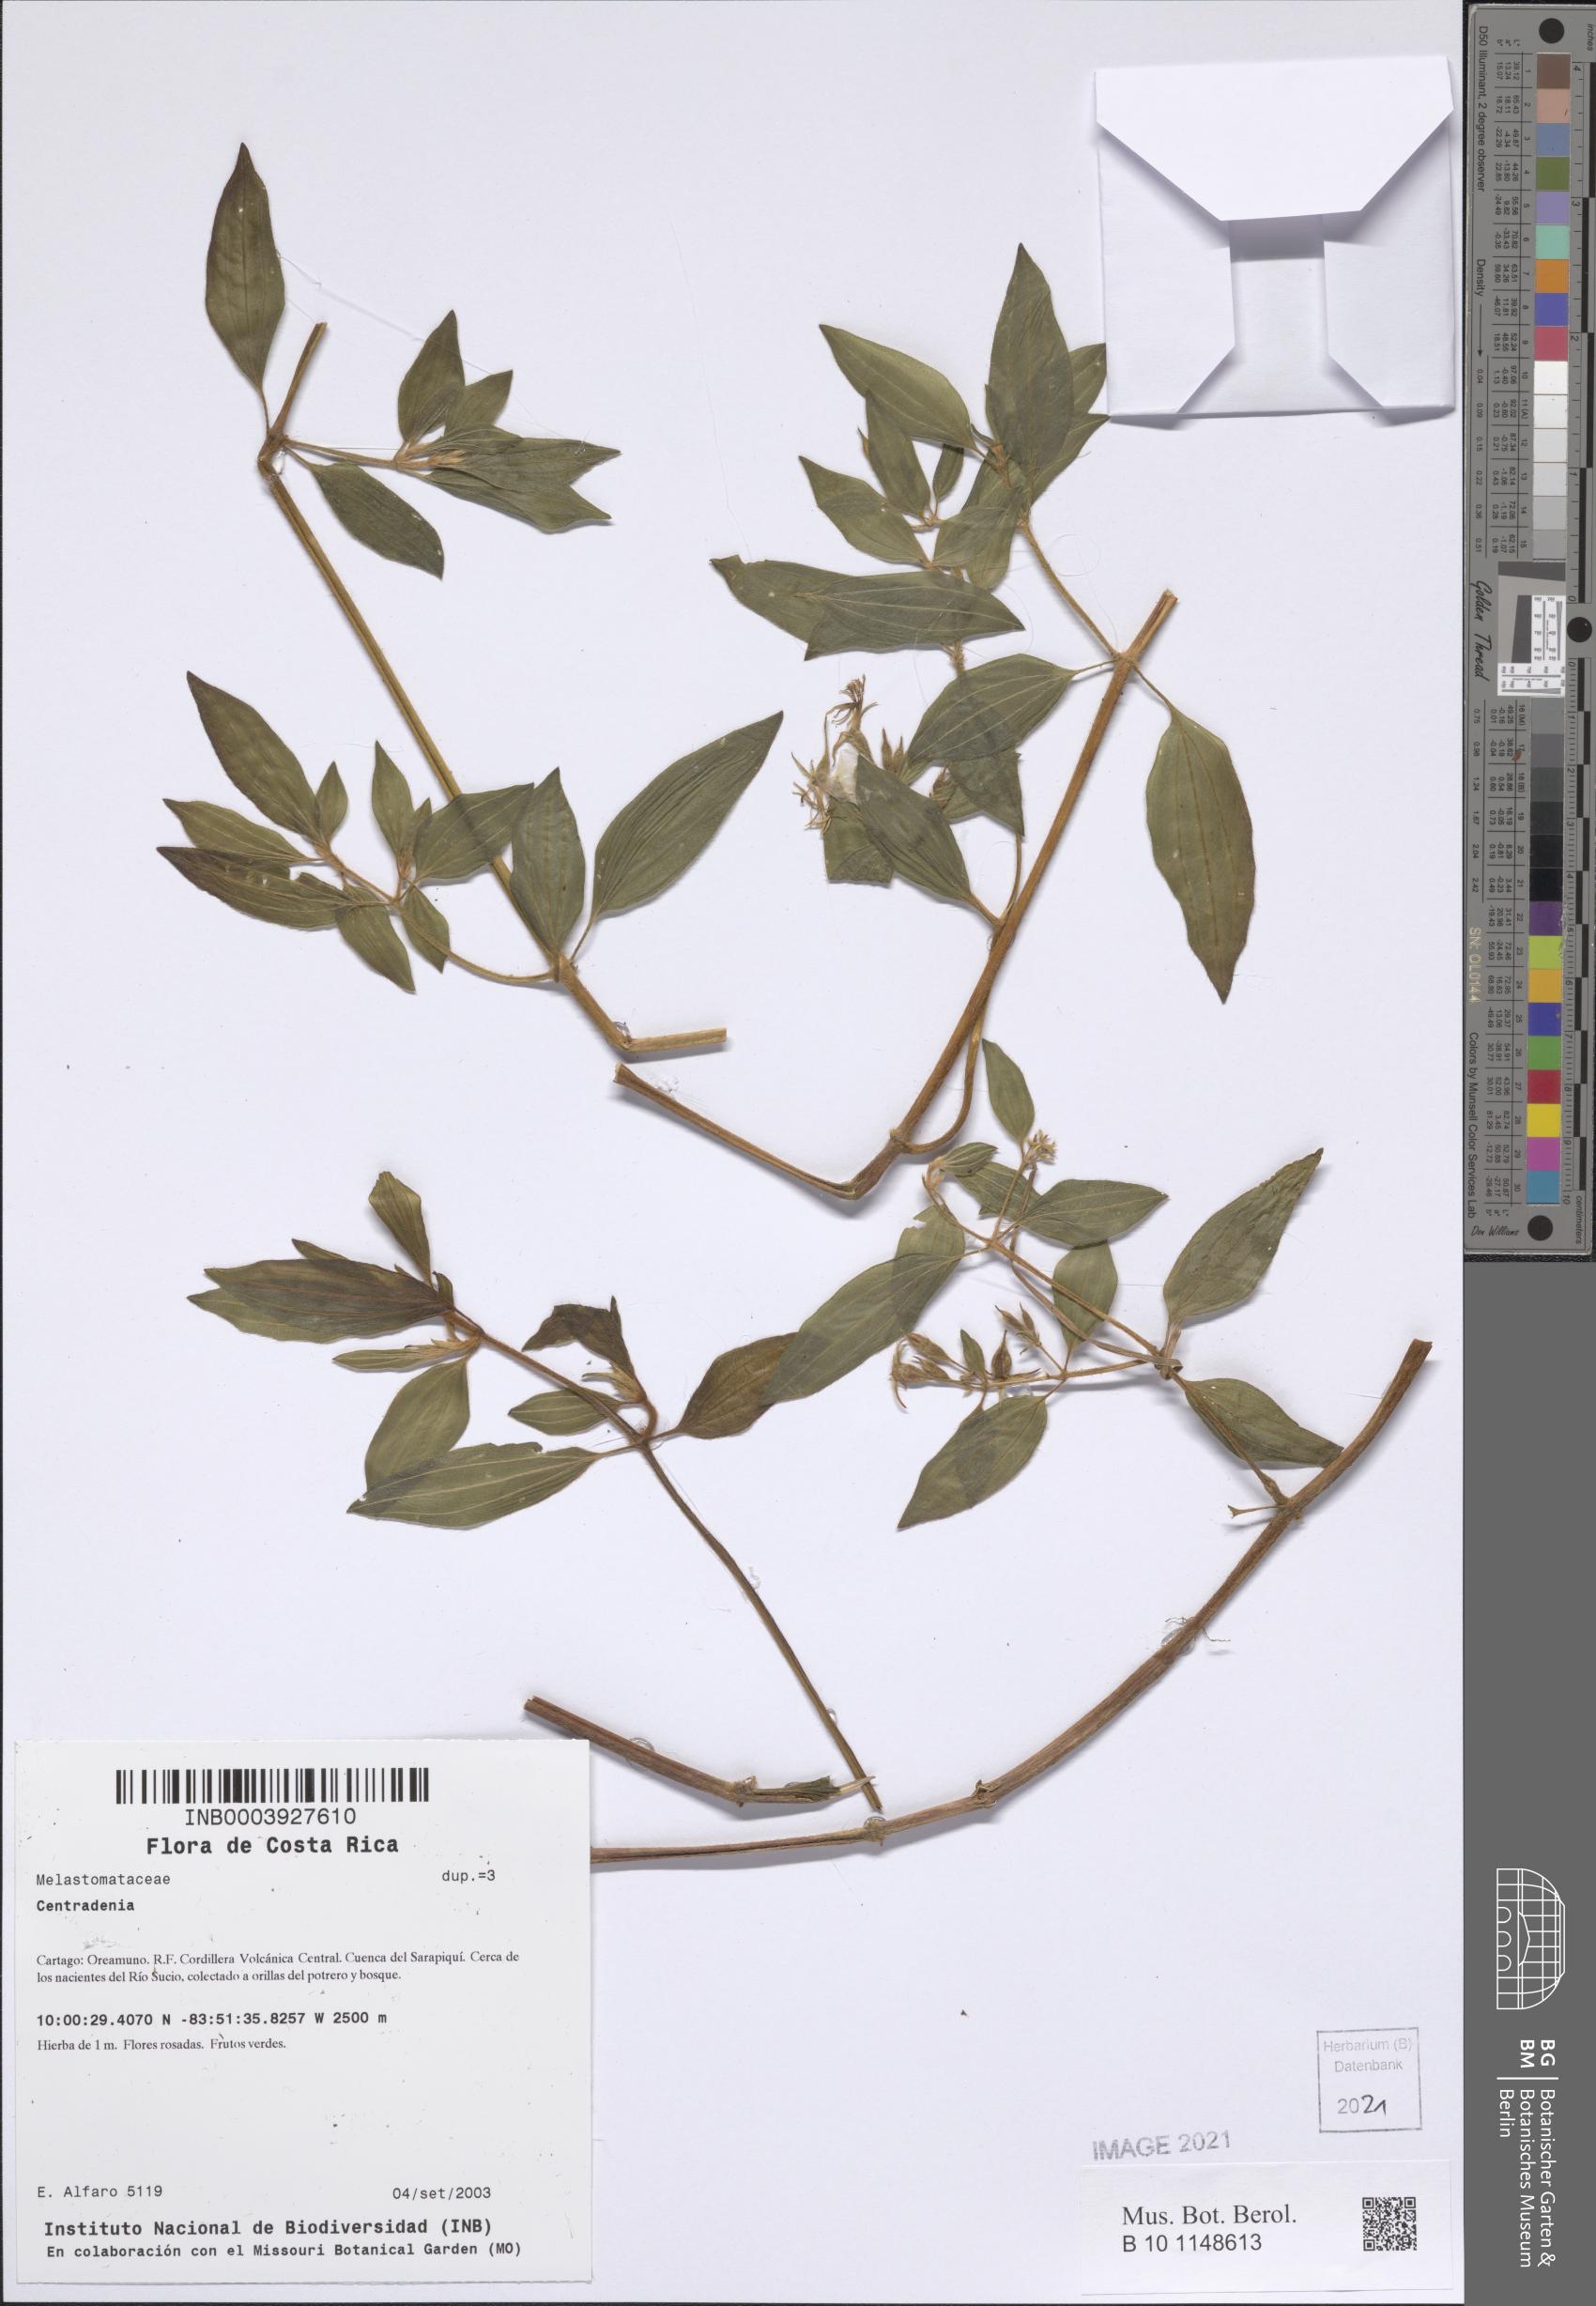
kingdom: Plantae
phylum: Tracheophyta
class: Magnoliopsida
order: Myrtales
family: Melastomataceae
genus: Centradenia
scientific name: Centradenia
